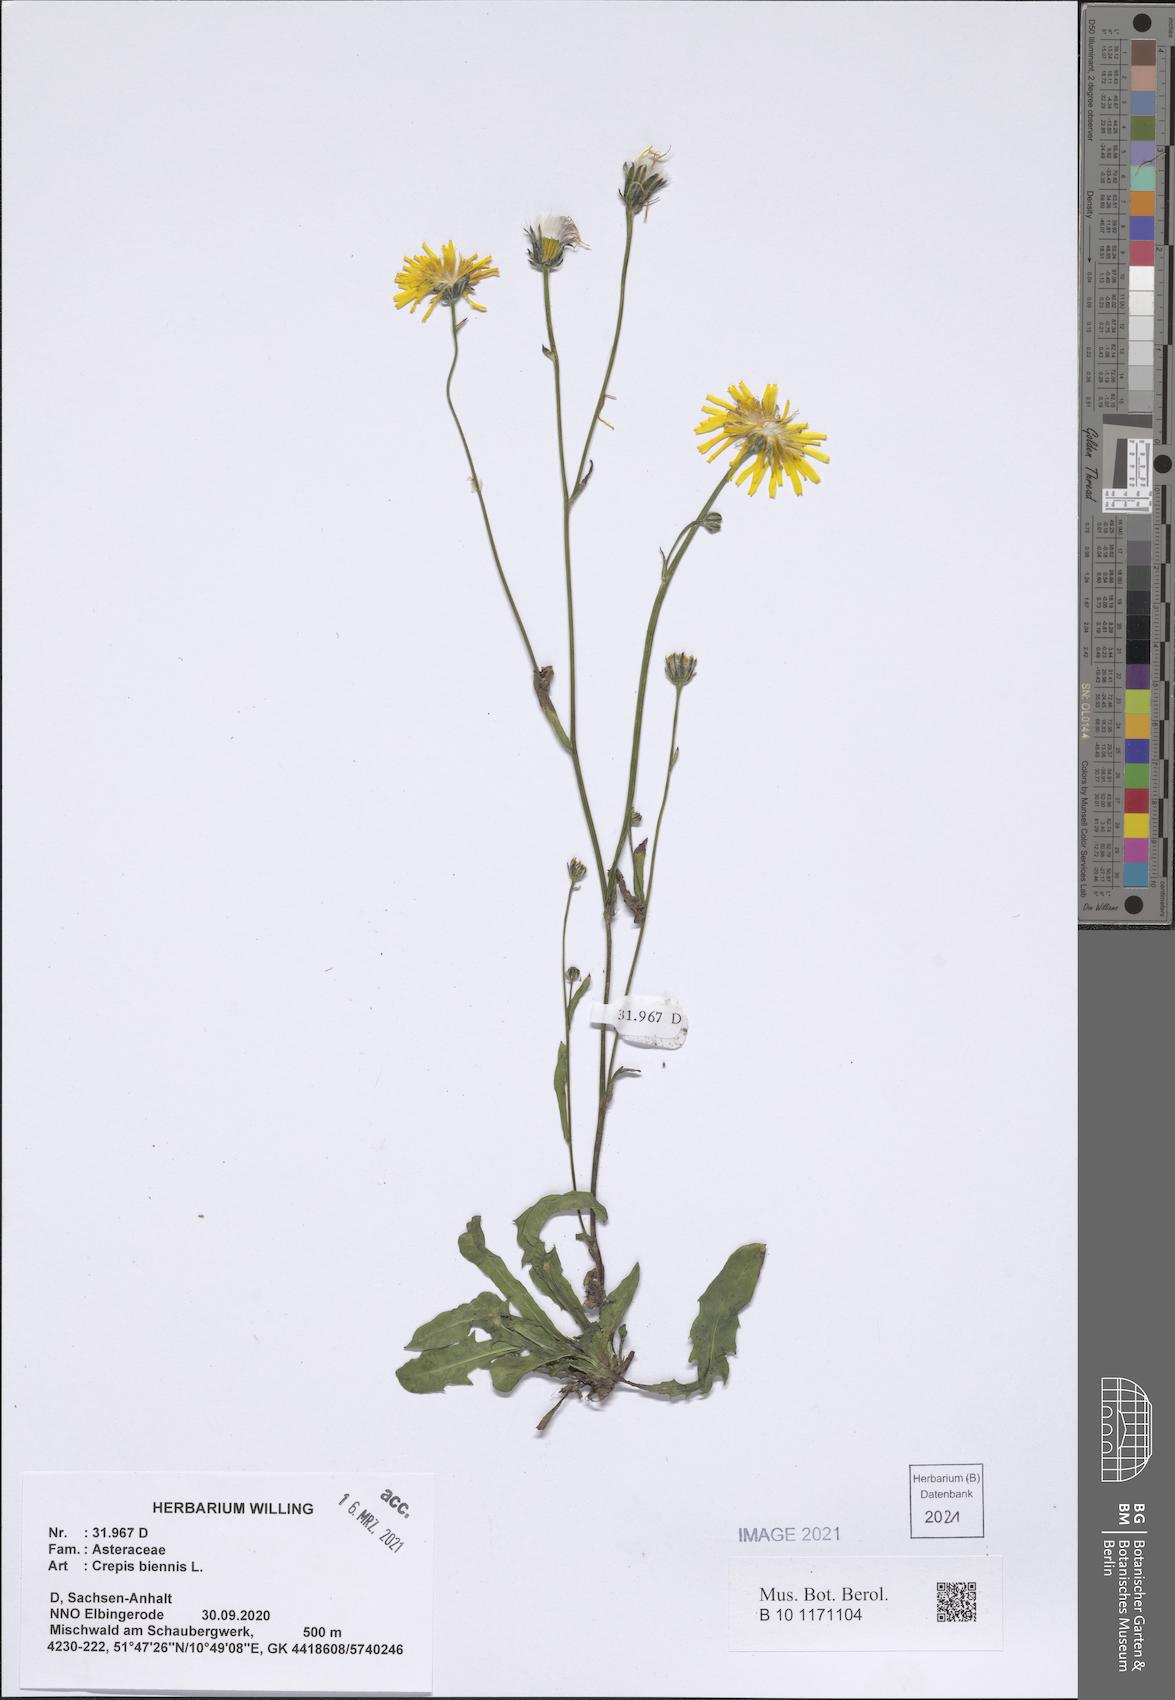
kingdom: Plantae
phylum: Tracheophyta
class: Magnoliopsida
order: Asterales
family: Asteraceae
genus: Crepis
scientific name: Crepis biennis
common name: Rough hawk's-beard
